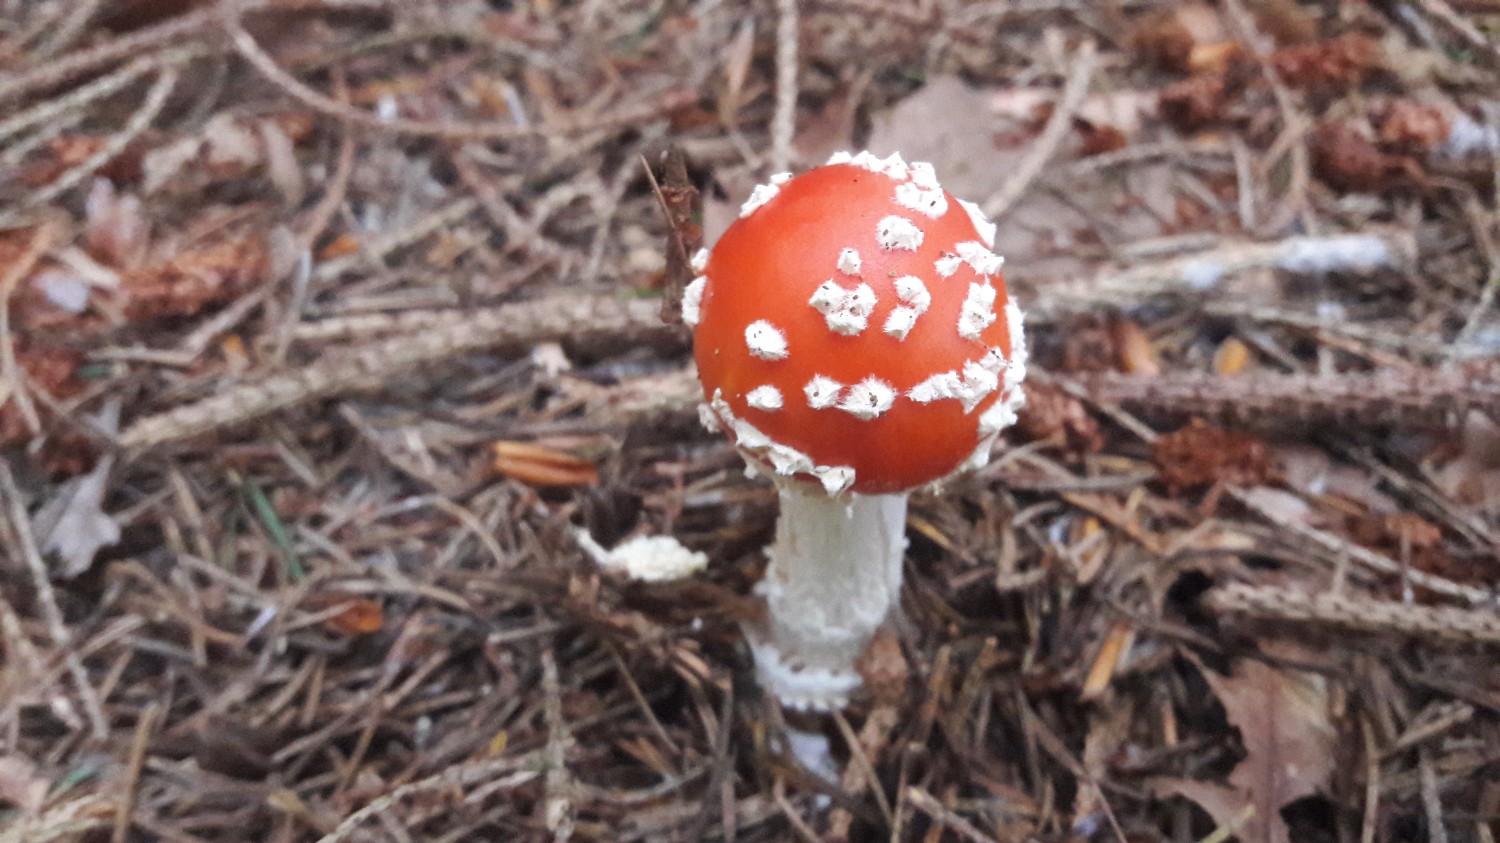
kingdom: Fungi
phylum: Basidiomycota
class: Agaricomycetes
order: Agaricales
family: Amanitaceae
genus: Amanita
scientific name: Amanita muscaria
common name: rød fluesvamp
